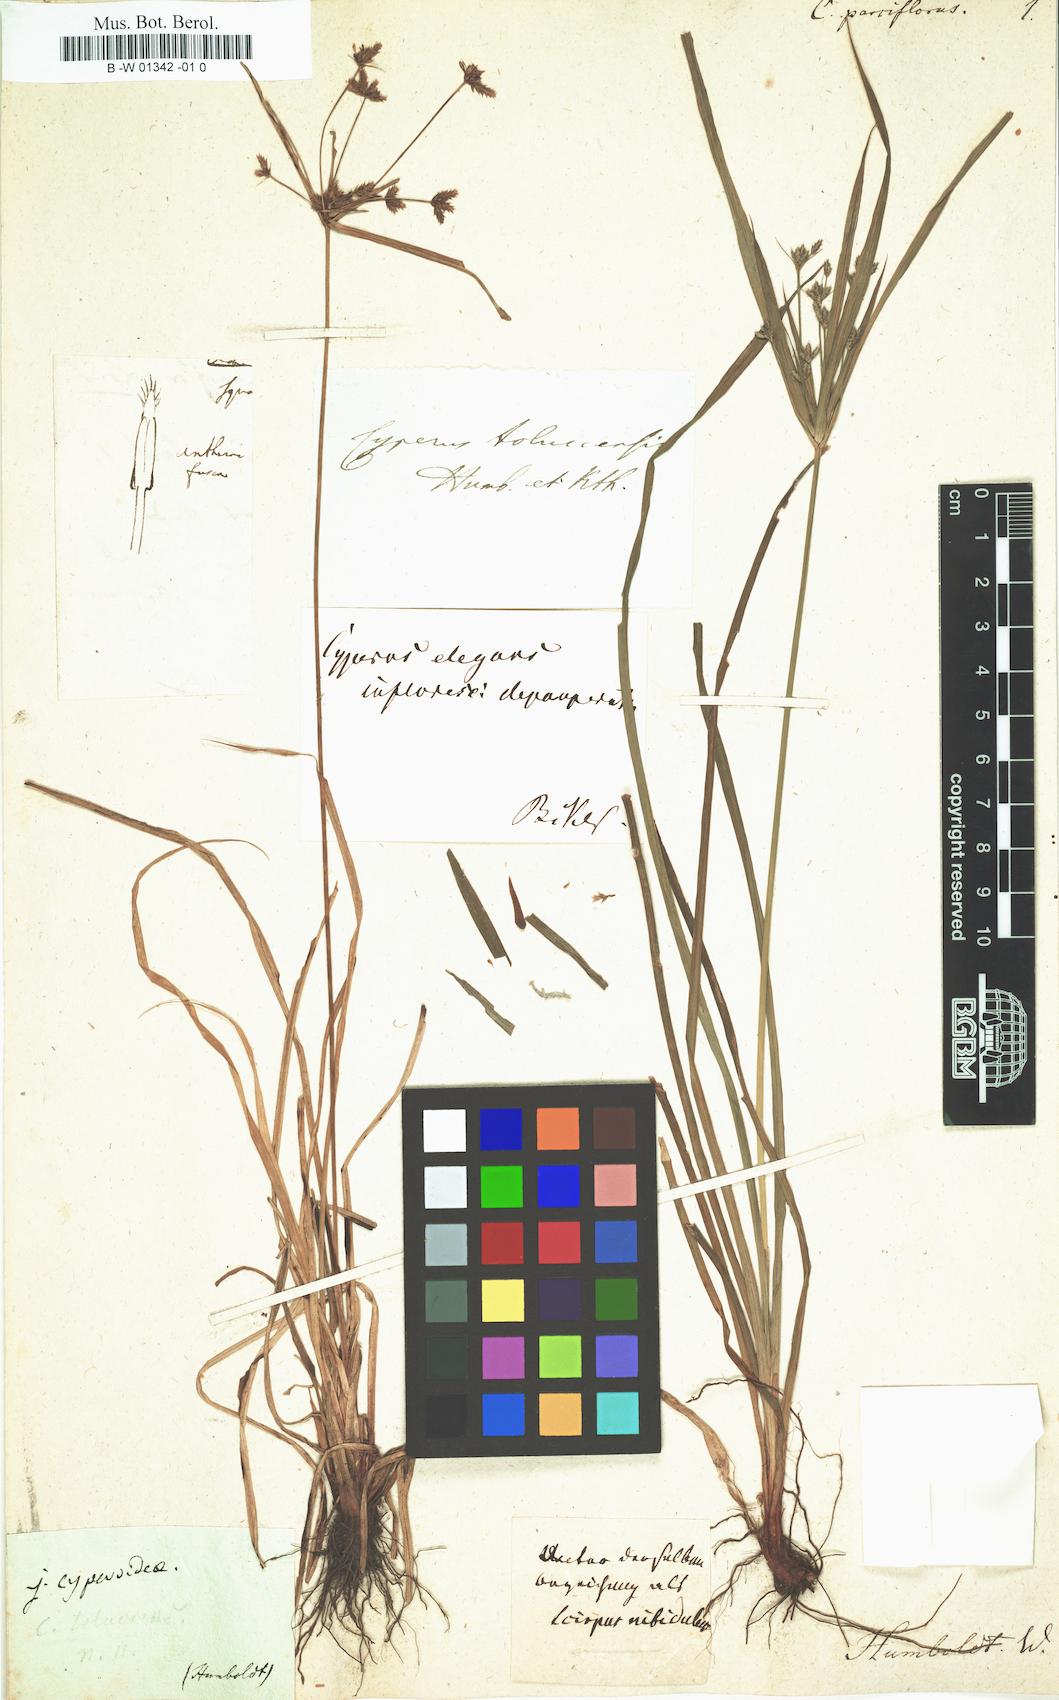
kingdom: Plantae
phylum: Tracheophyta
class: Liliopsida
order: Poales
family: Cyperaceae
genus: Cyperus
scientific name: Cyperus parviflorus
